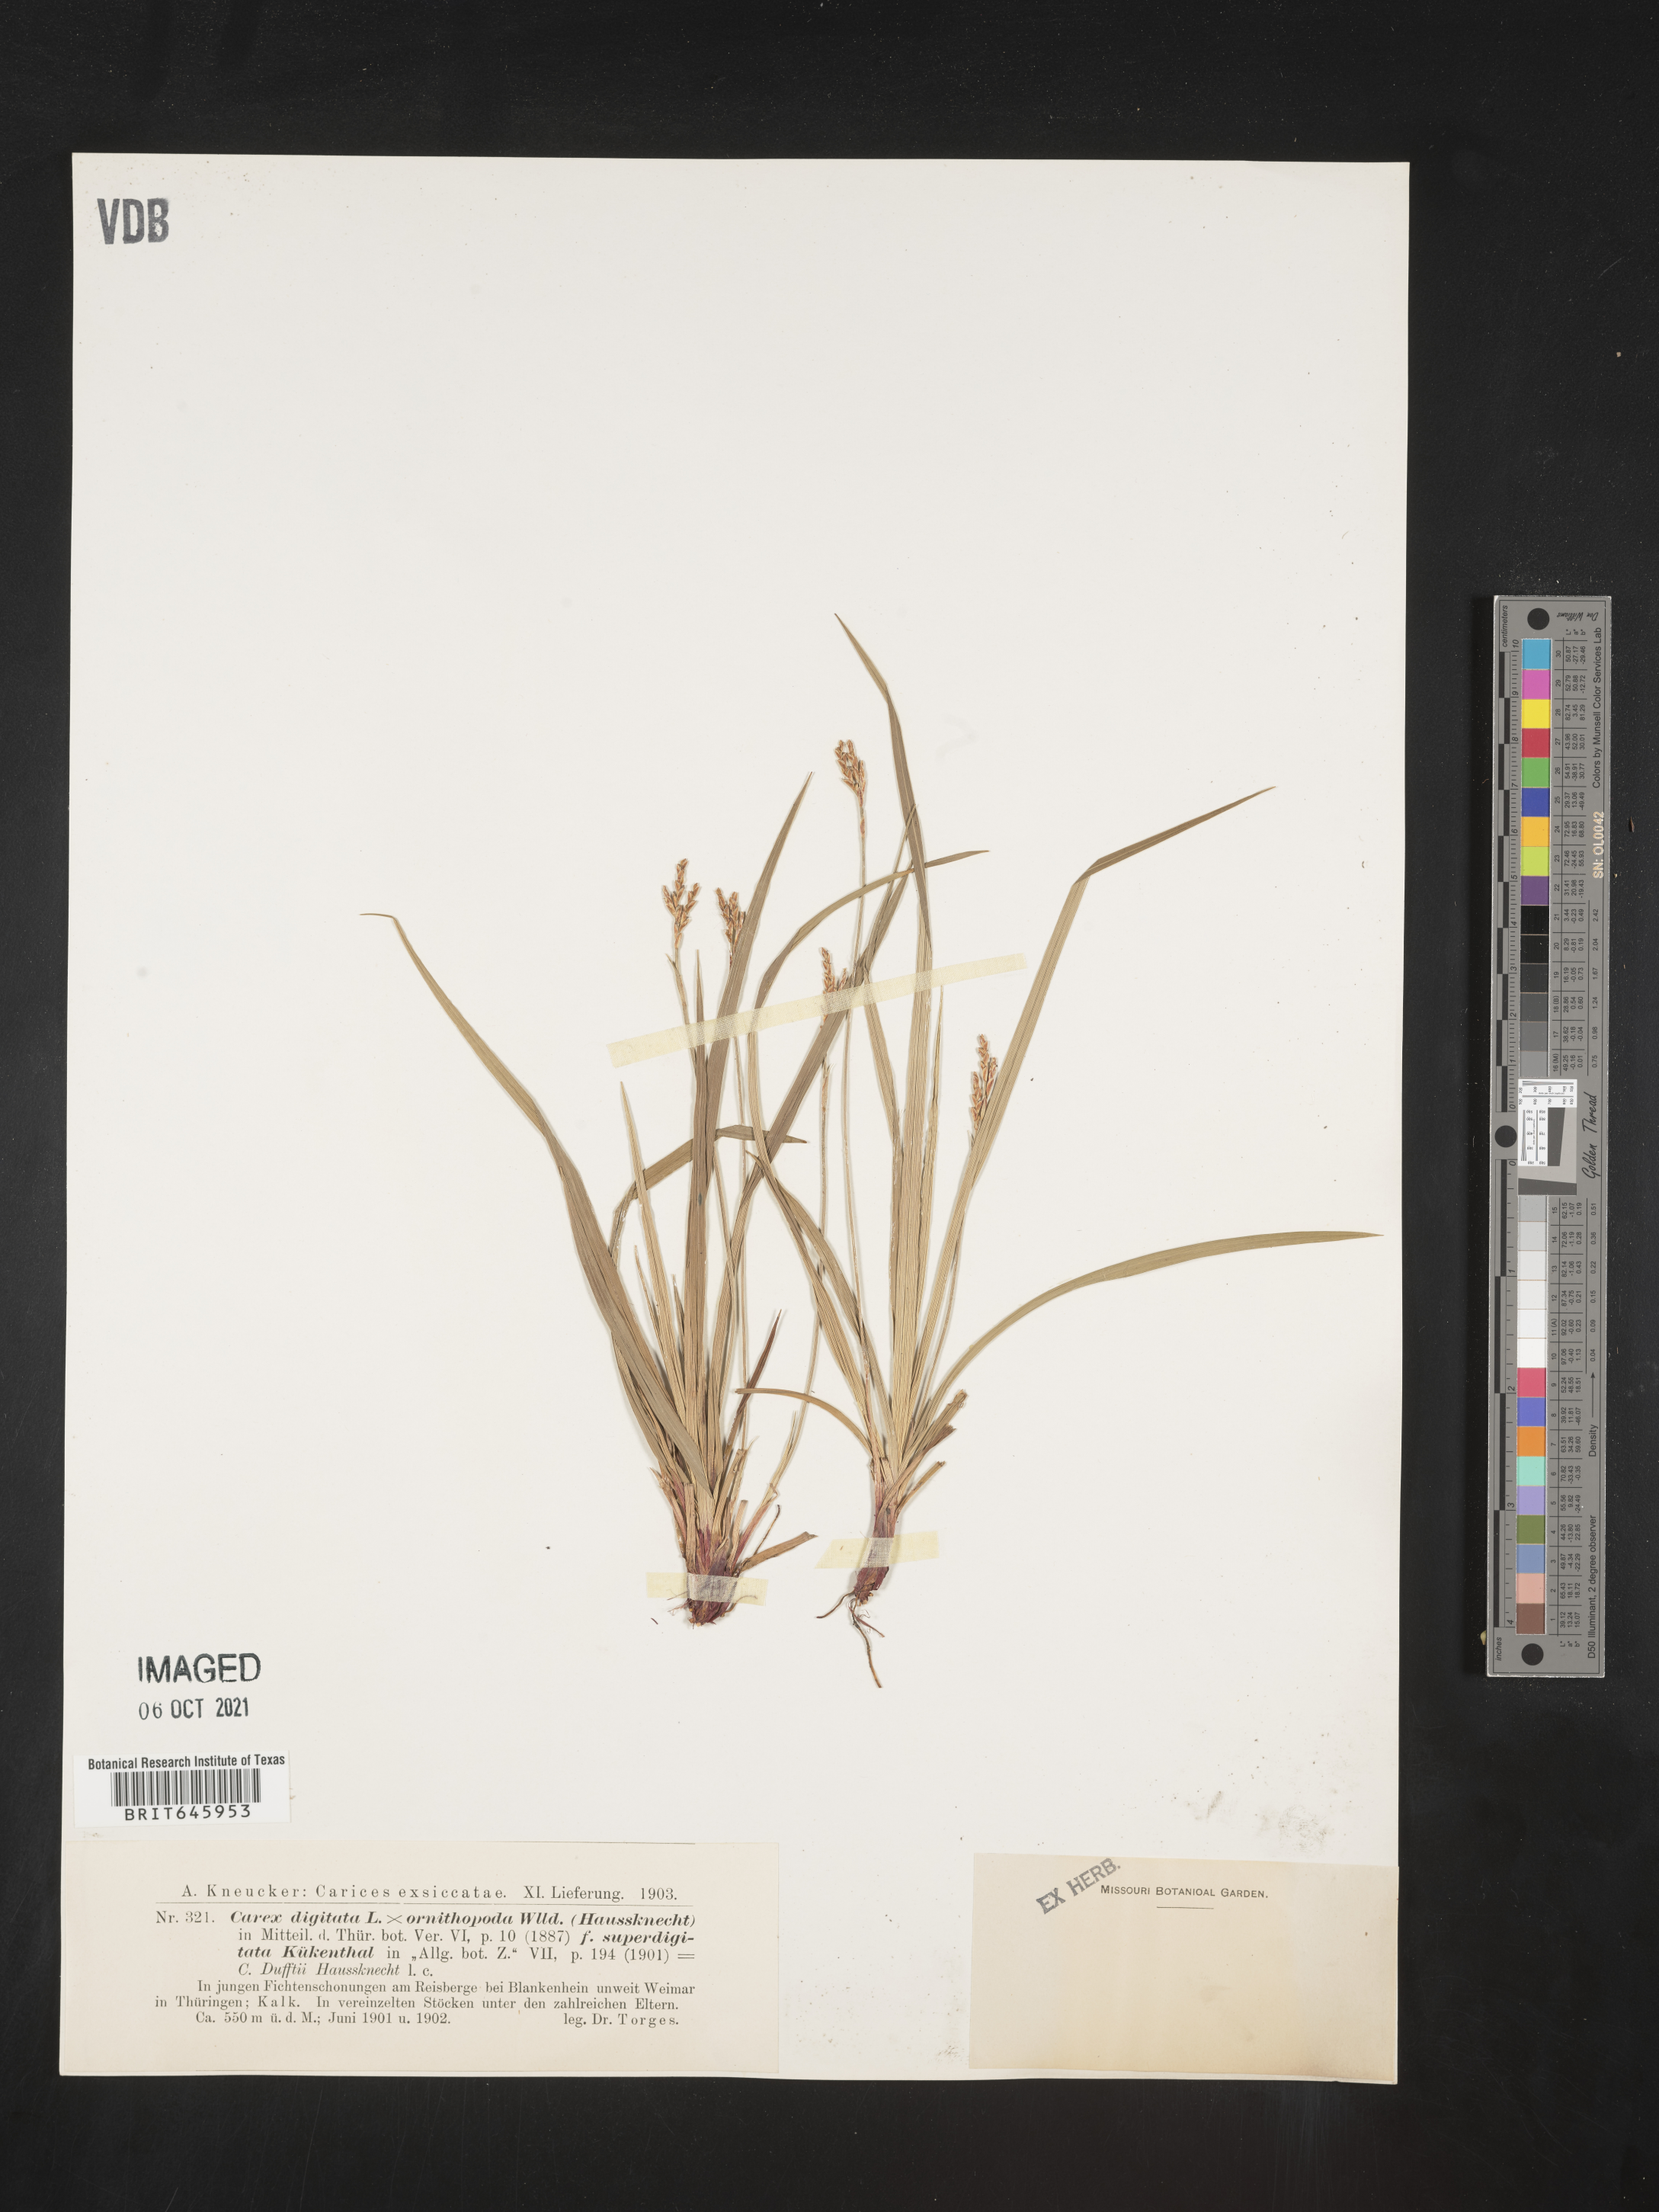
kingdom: Plantae
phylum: Tracheophyta
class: Liliopsida
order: Poales
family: Cyperaceae
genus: Carex
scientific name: Carex
